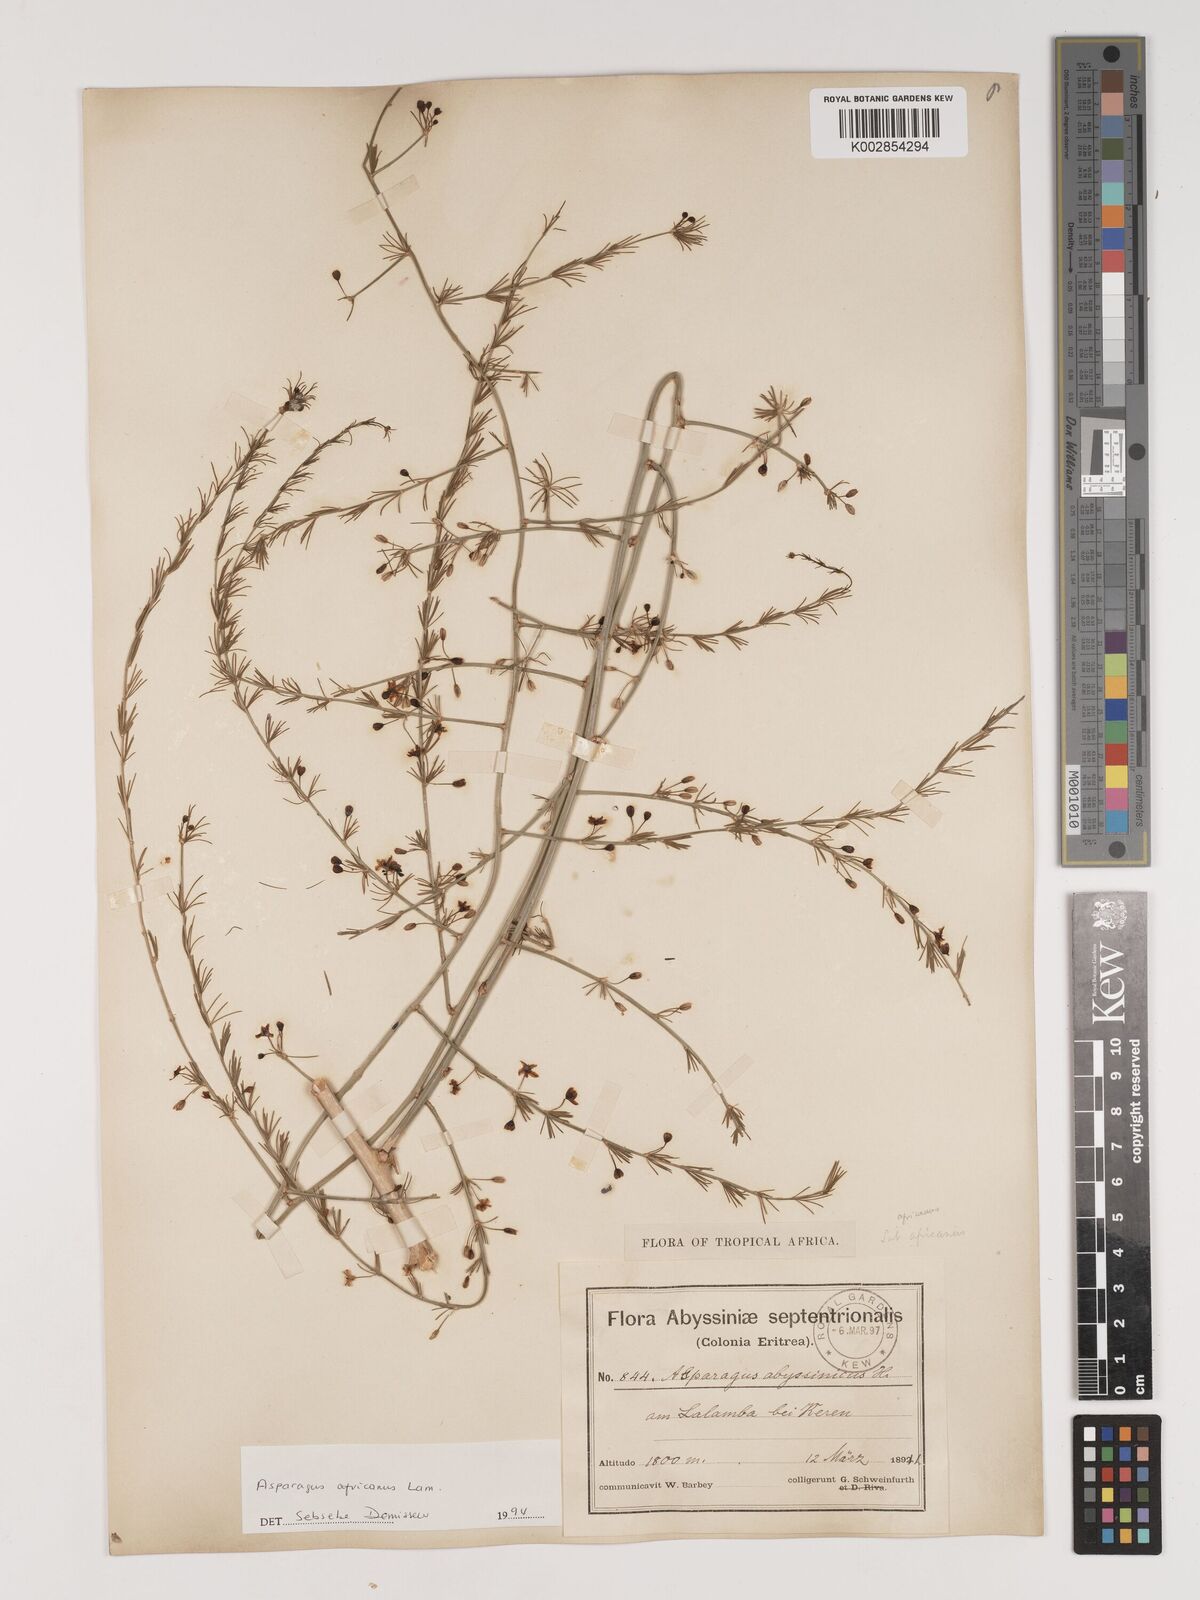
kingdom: Plantae
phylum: Tracheophyta
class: Liliopsida
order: Asparagales
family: Asparagaceae
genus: Asparagus
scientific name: Asparagus africanus
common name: Asparagus-fern
